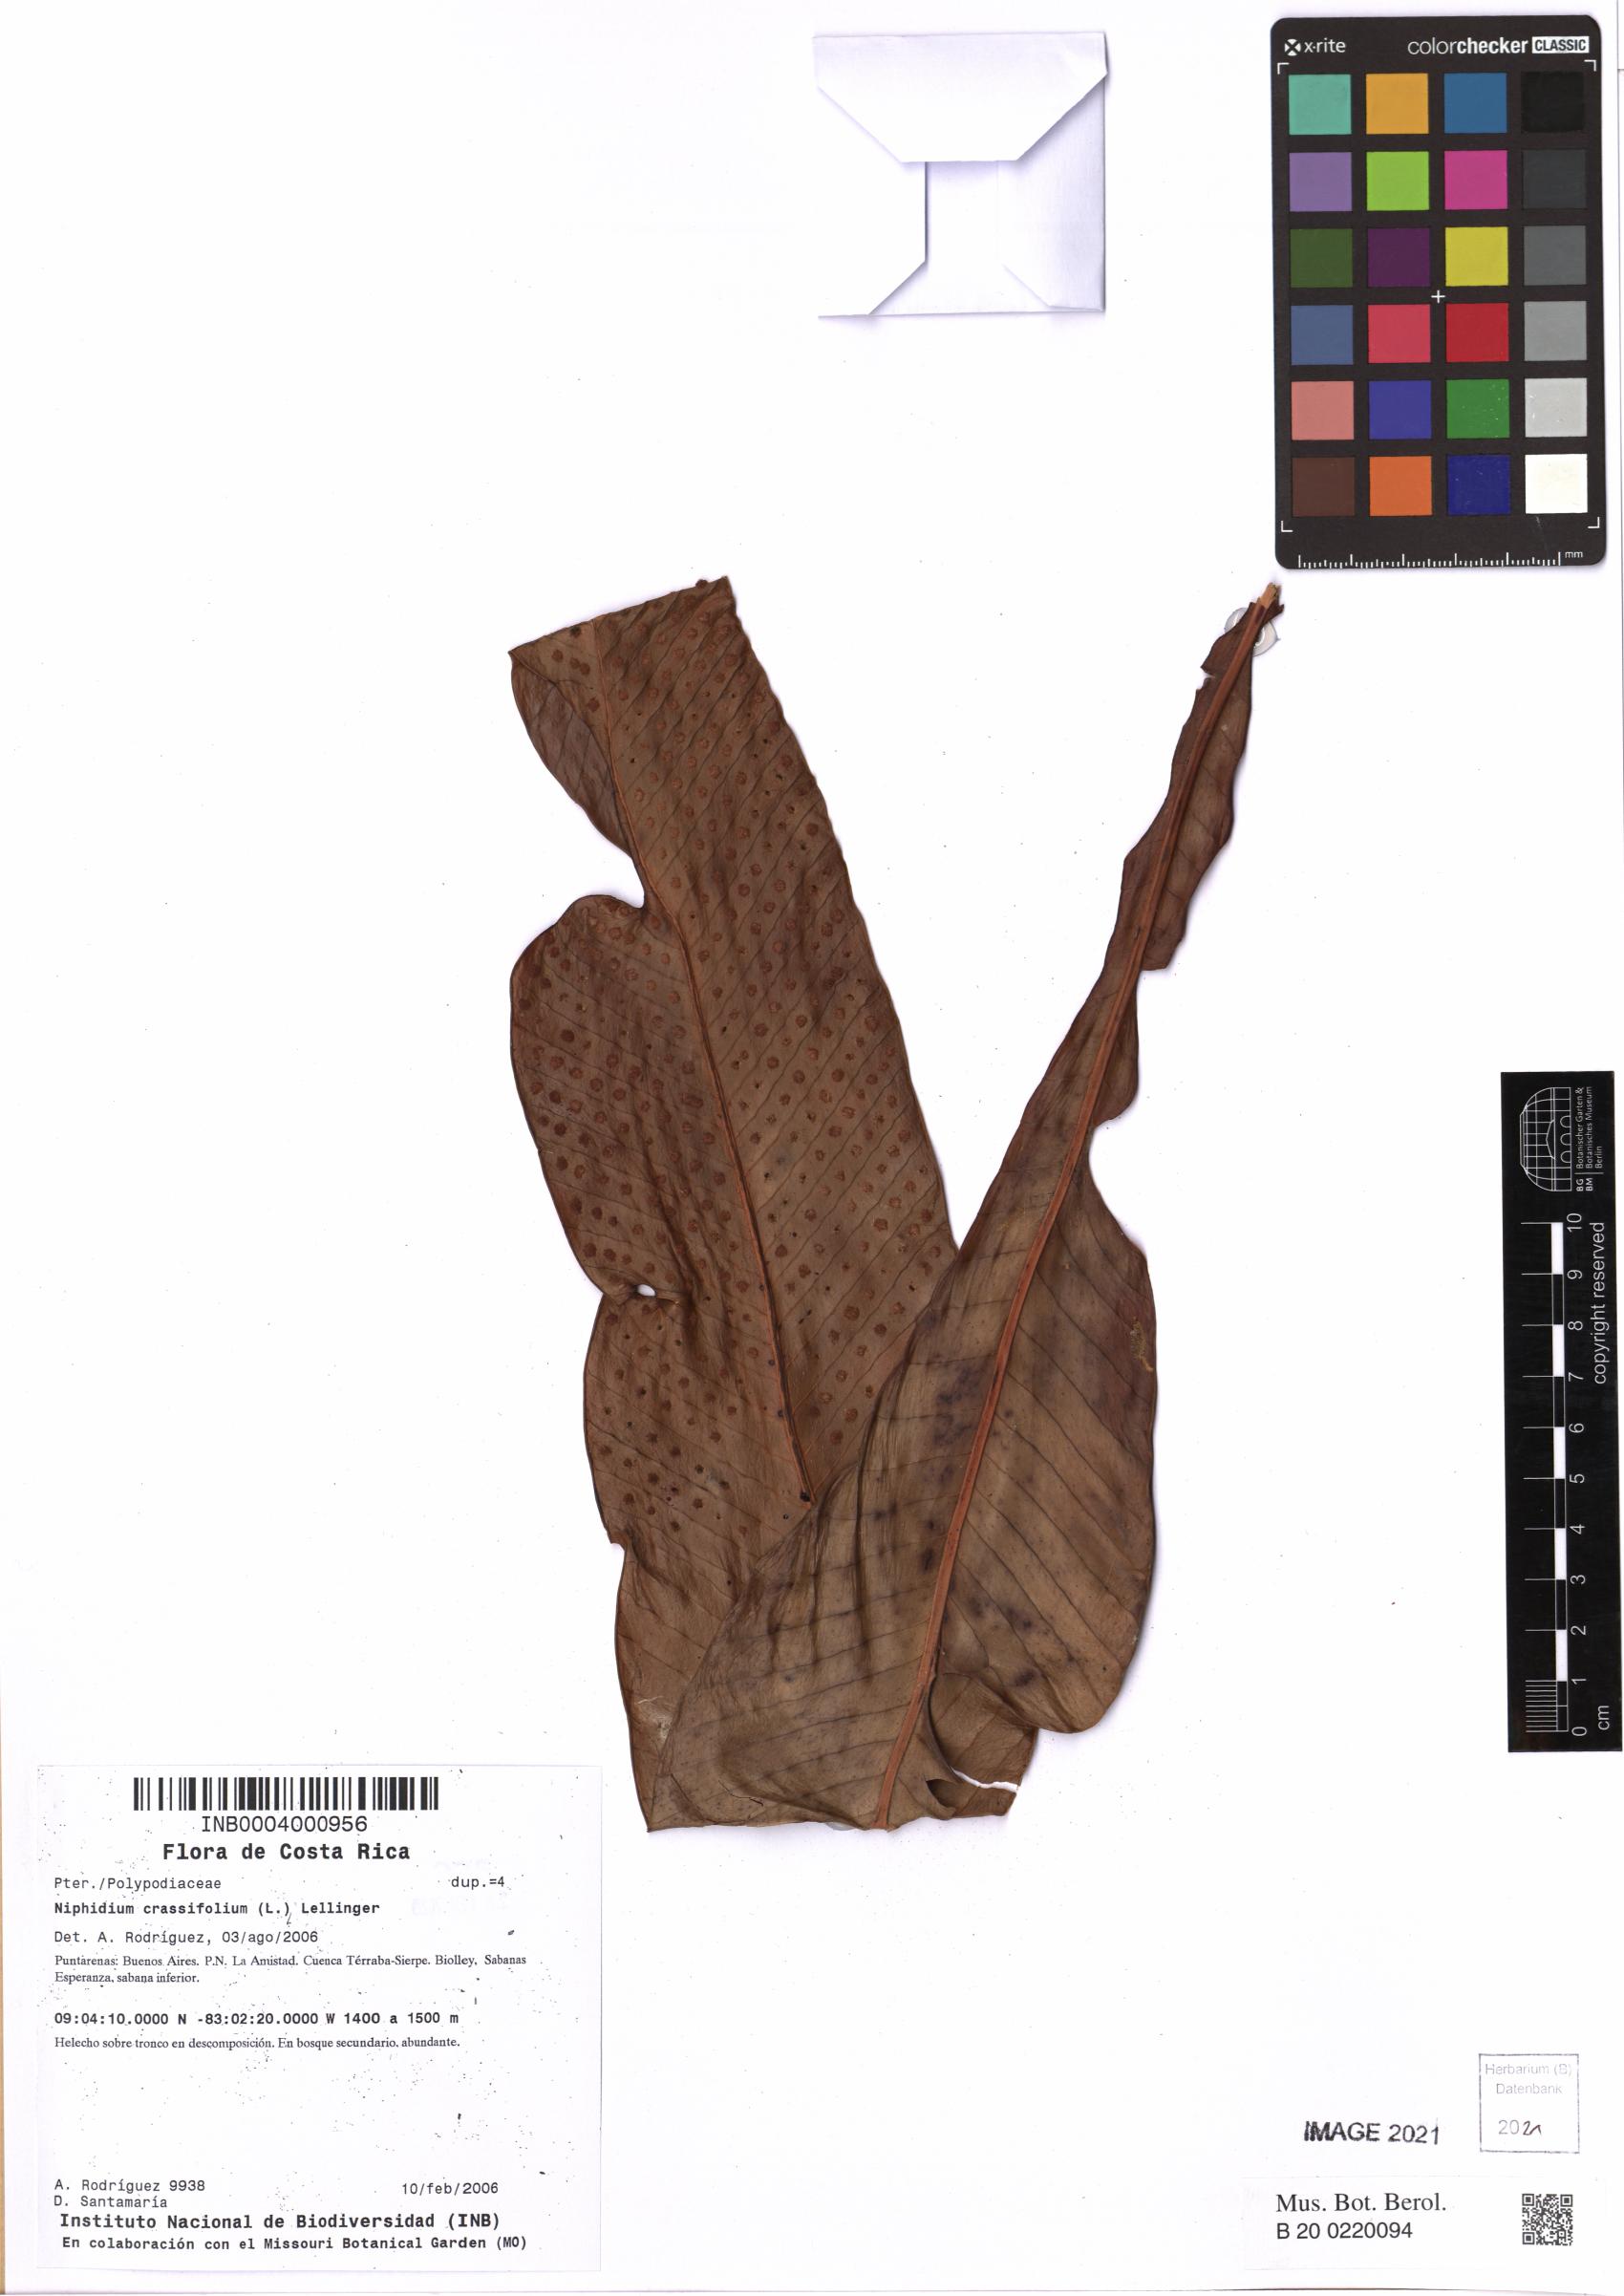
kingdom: Plantae
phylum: Tracheophyta
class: Polypodiopsida
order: Polypodiales
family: Polypodiaceae
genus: Niphidium
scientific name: Niphidium crassifolium
